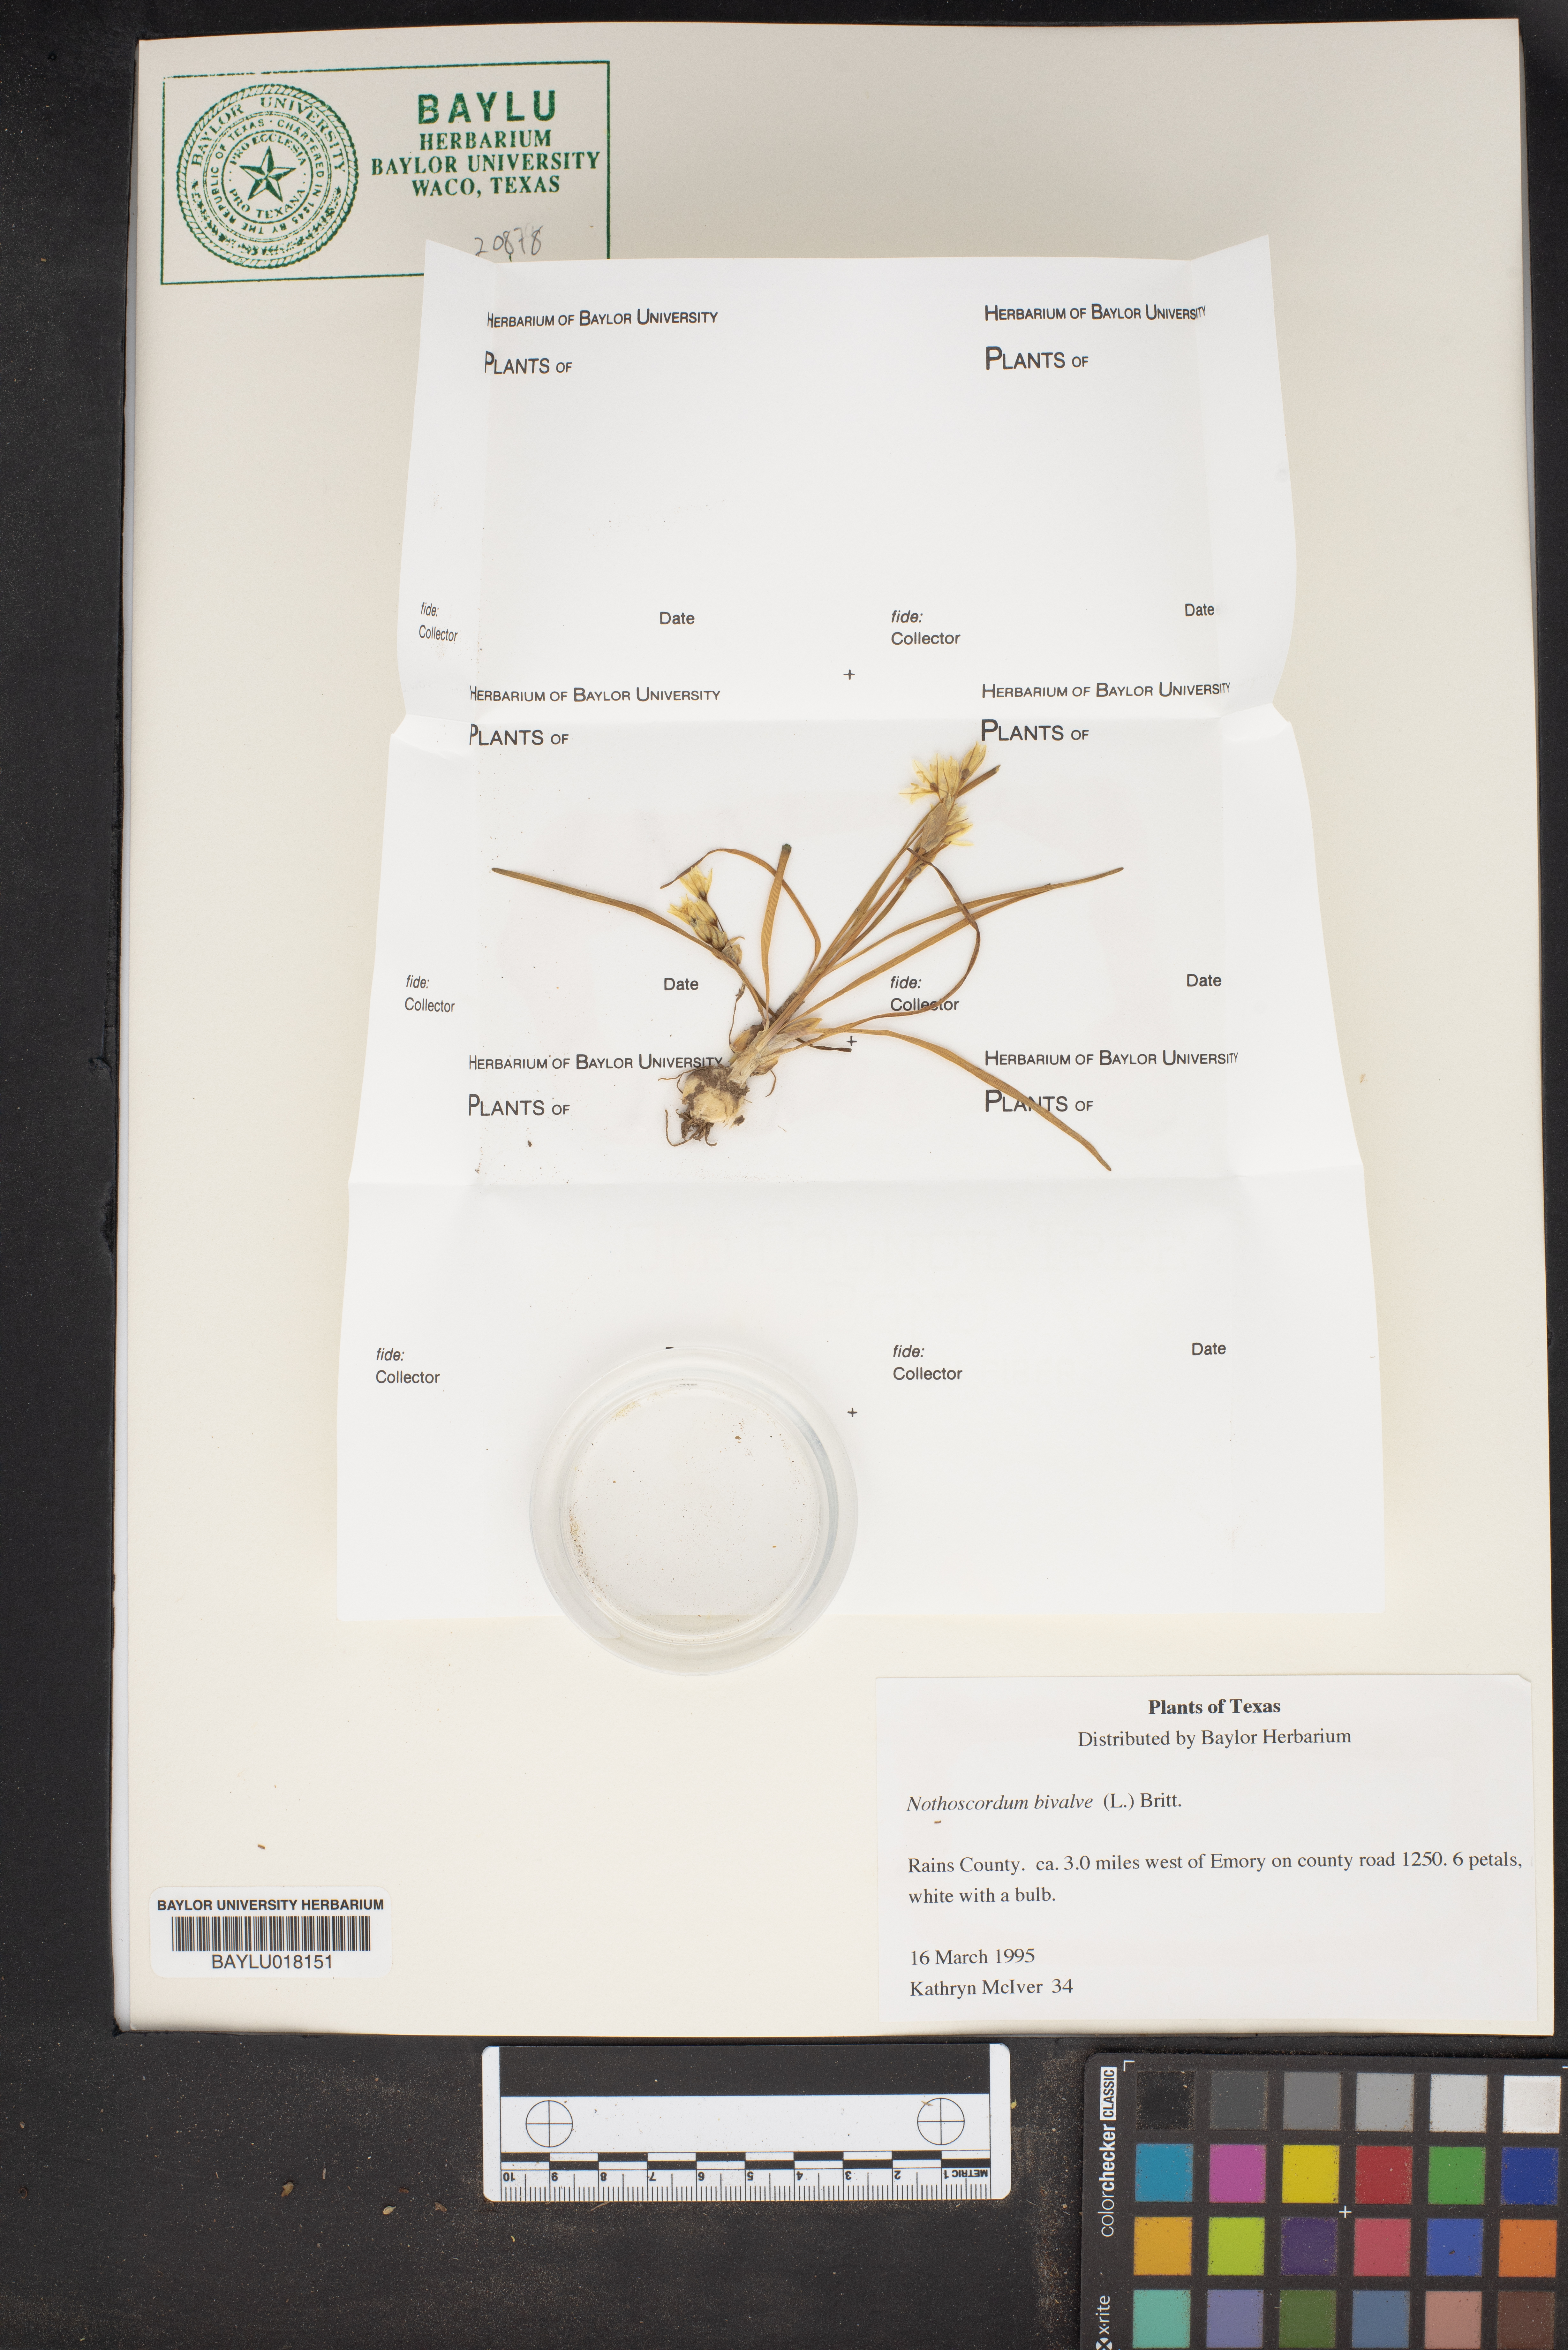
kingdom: Plantae
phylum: Tracheophyta
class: Liliopsida
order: Asparagales
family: Amaryllidaceae
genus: Nothoscordum
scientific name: Nothoscordum bivalve
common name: Crow-poison
